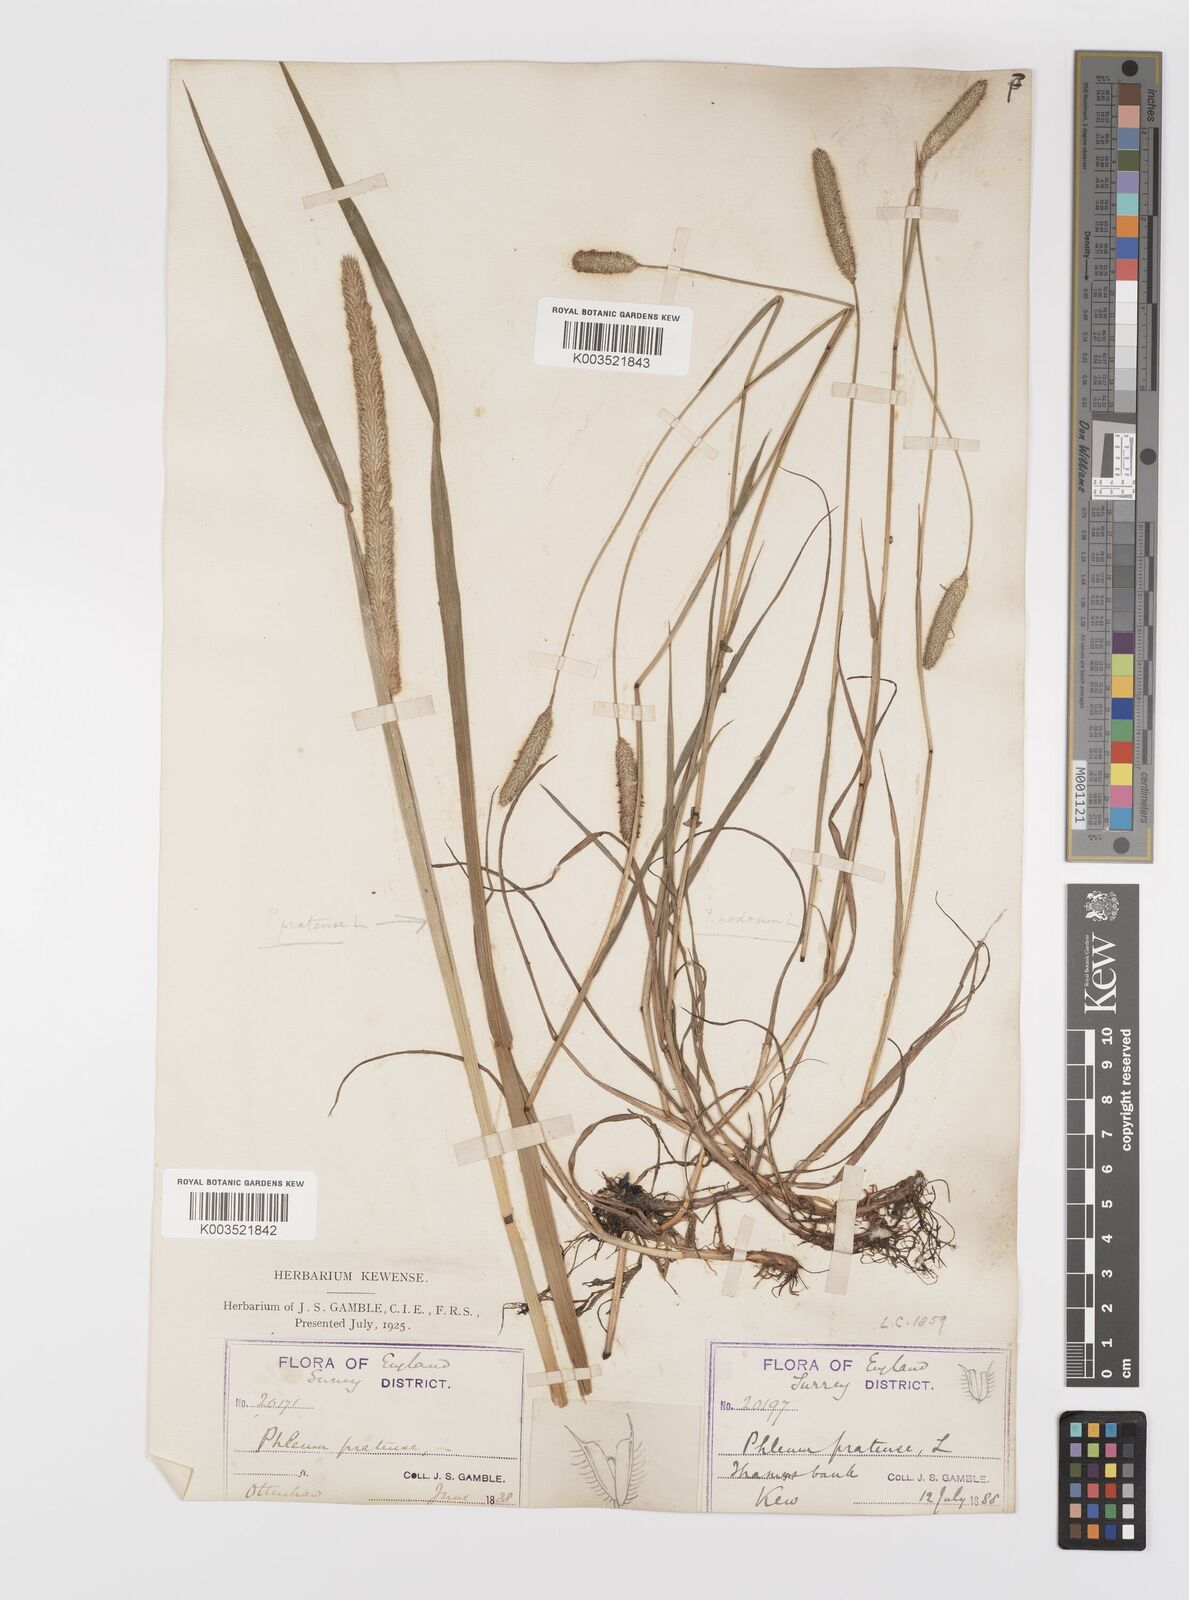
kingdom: Plantae
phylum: Tracheophyta
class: Liliopsida
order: Poales
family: Poaceae
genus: Phleum
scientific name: Phleum bertolonii
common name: Smaller cat's-tail
